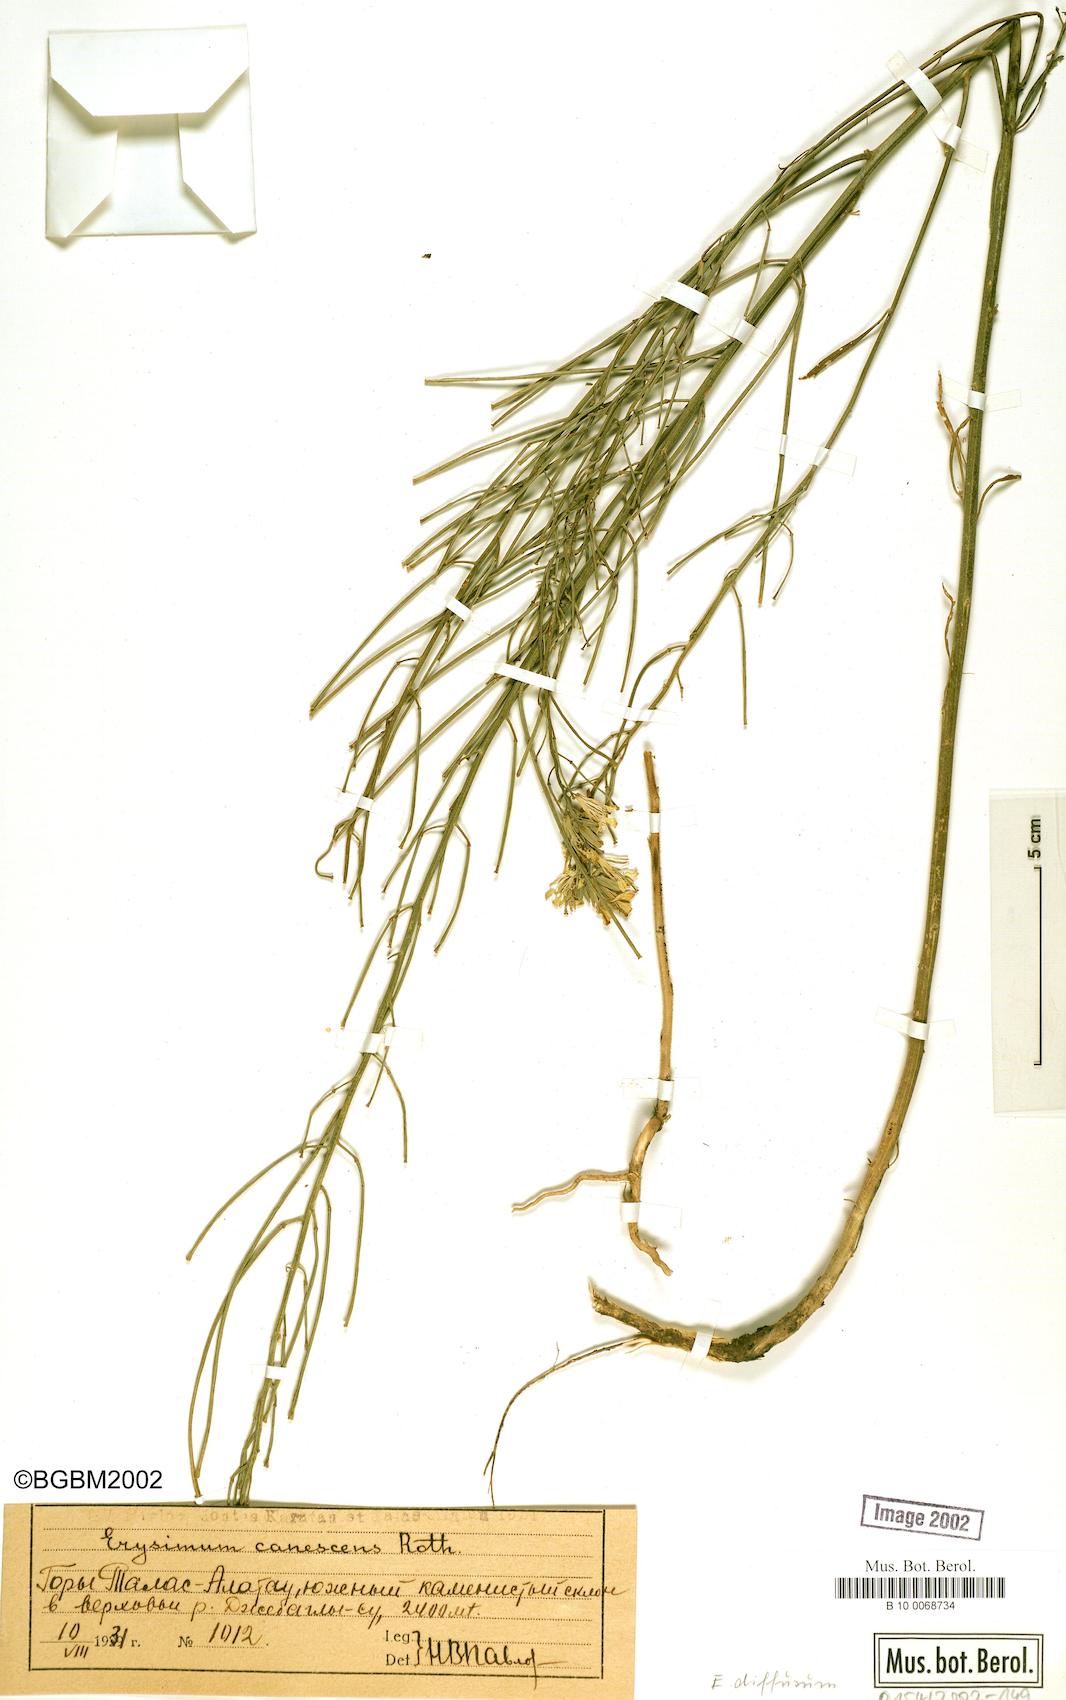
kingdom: Plantae
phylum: Tracheophyta
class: Magnoliopsida
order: Brassicales
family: Brassicaceae
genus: Erysimum
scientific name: Erysimum diffusum
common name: Diffuse wallflower
